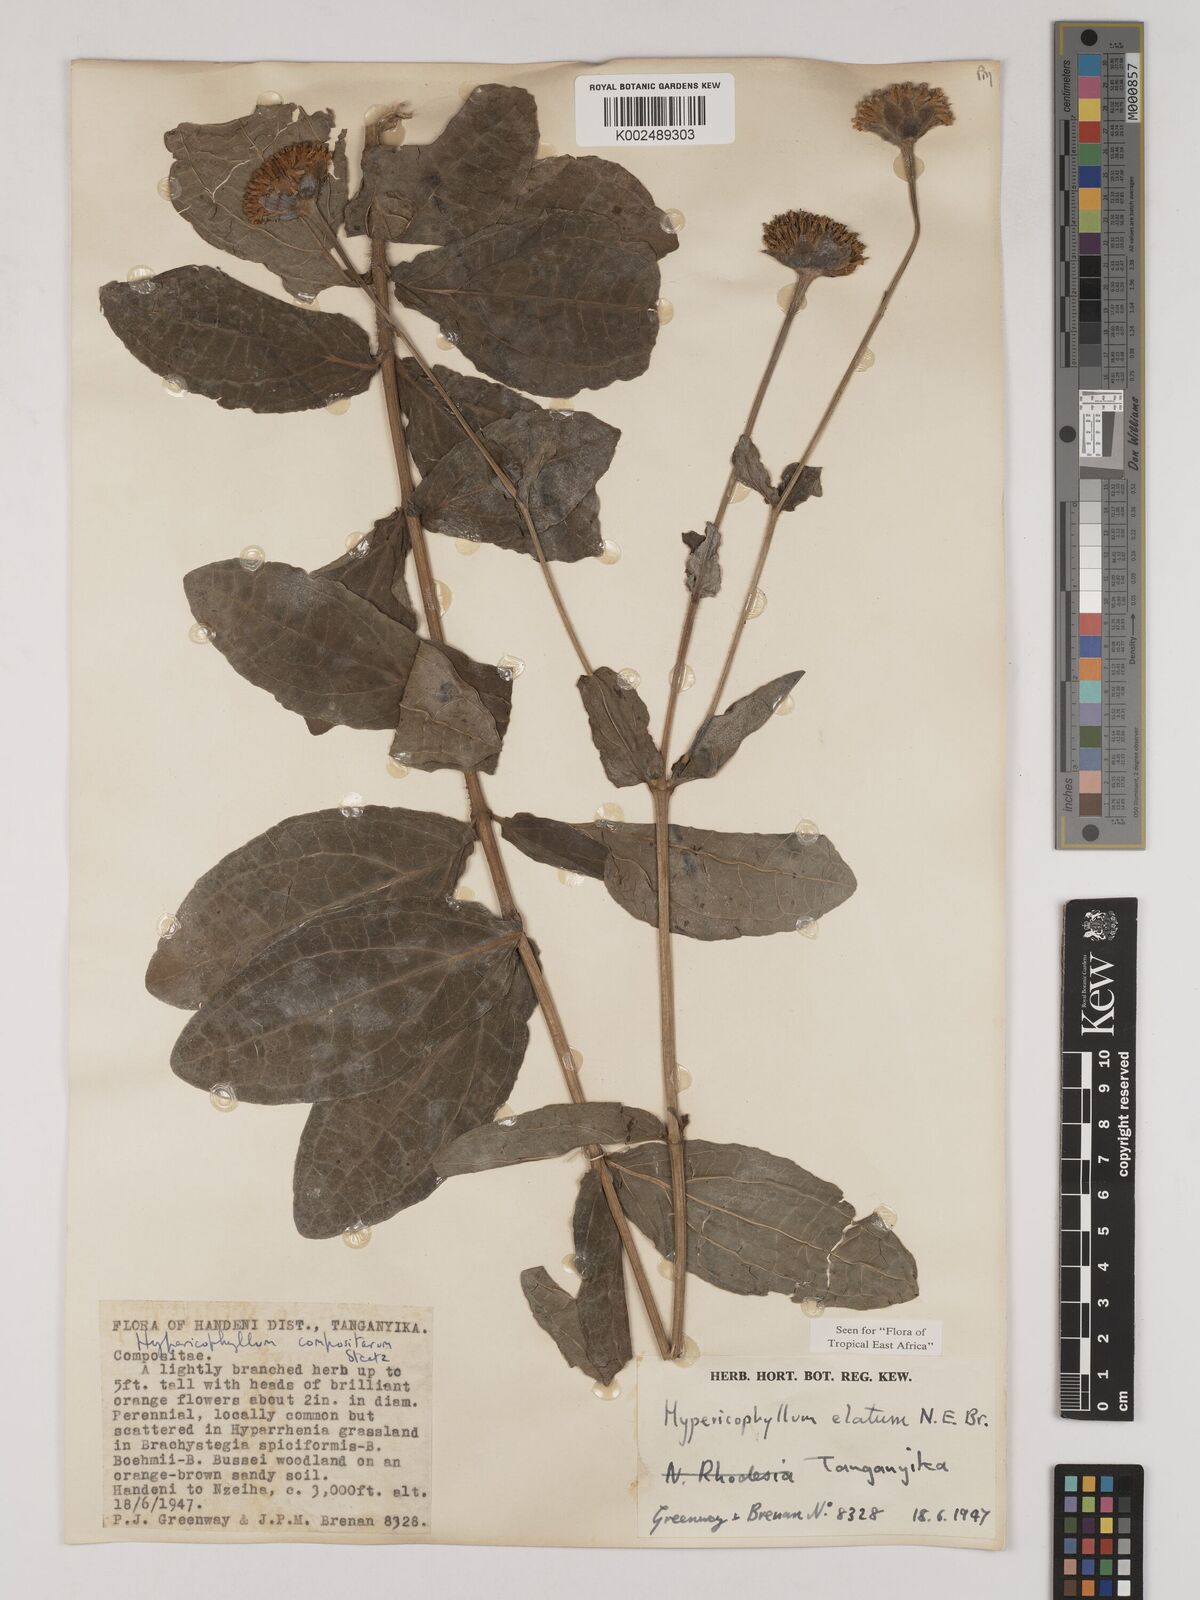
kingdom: Plantae
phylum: Tracheophyta
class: Magnoliopsida
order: Asterales
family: Asteraceae
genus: Hypericophyllum
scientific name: Hypericophyllum elatum
